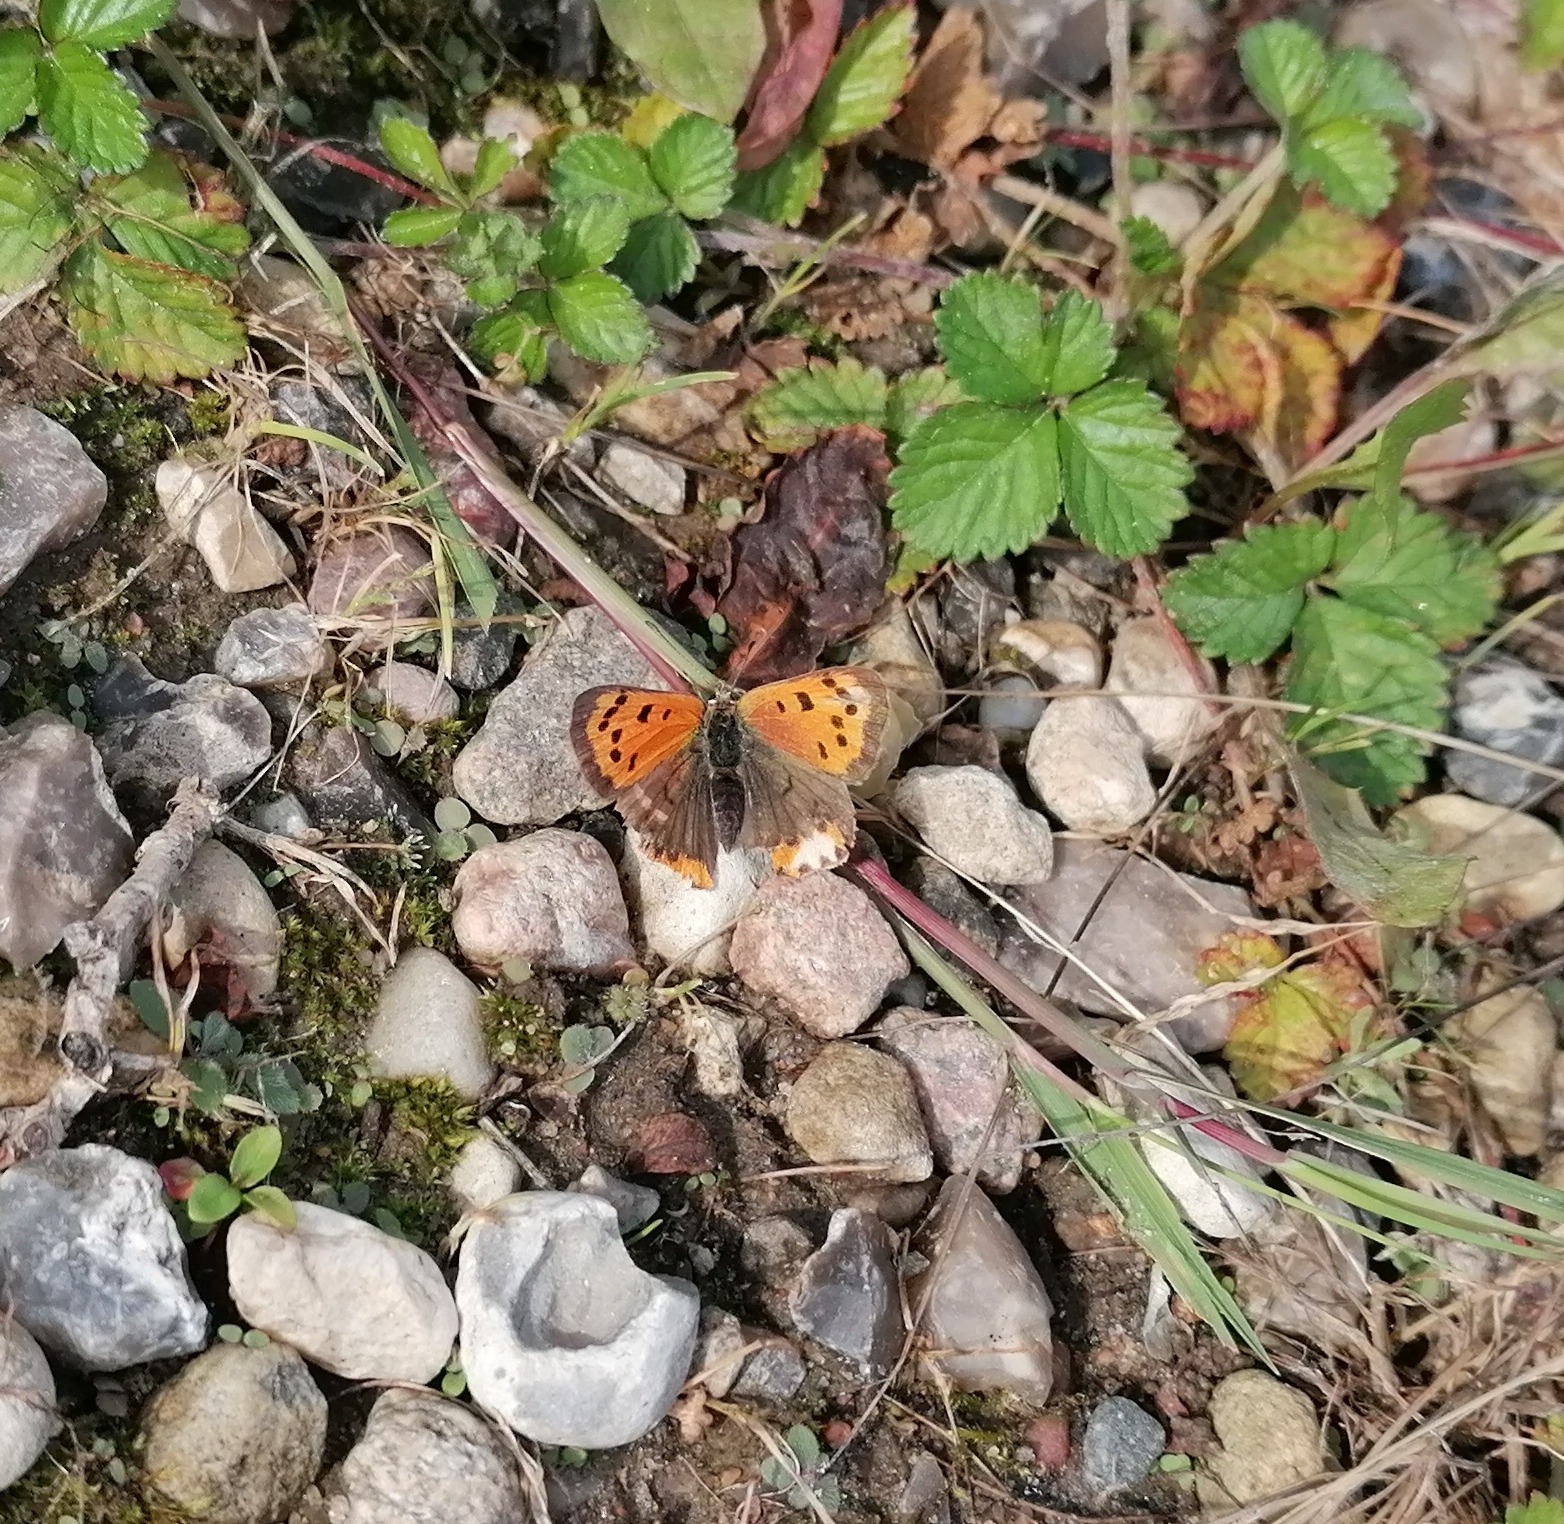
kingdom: Animalia
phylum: Arthropoda
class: Insecta
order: Lepidoptera
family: Lycaenidae
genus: Lycaena
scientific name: Lycaena phlaeas
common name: Lille ildfugl
